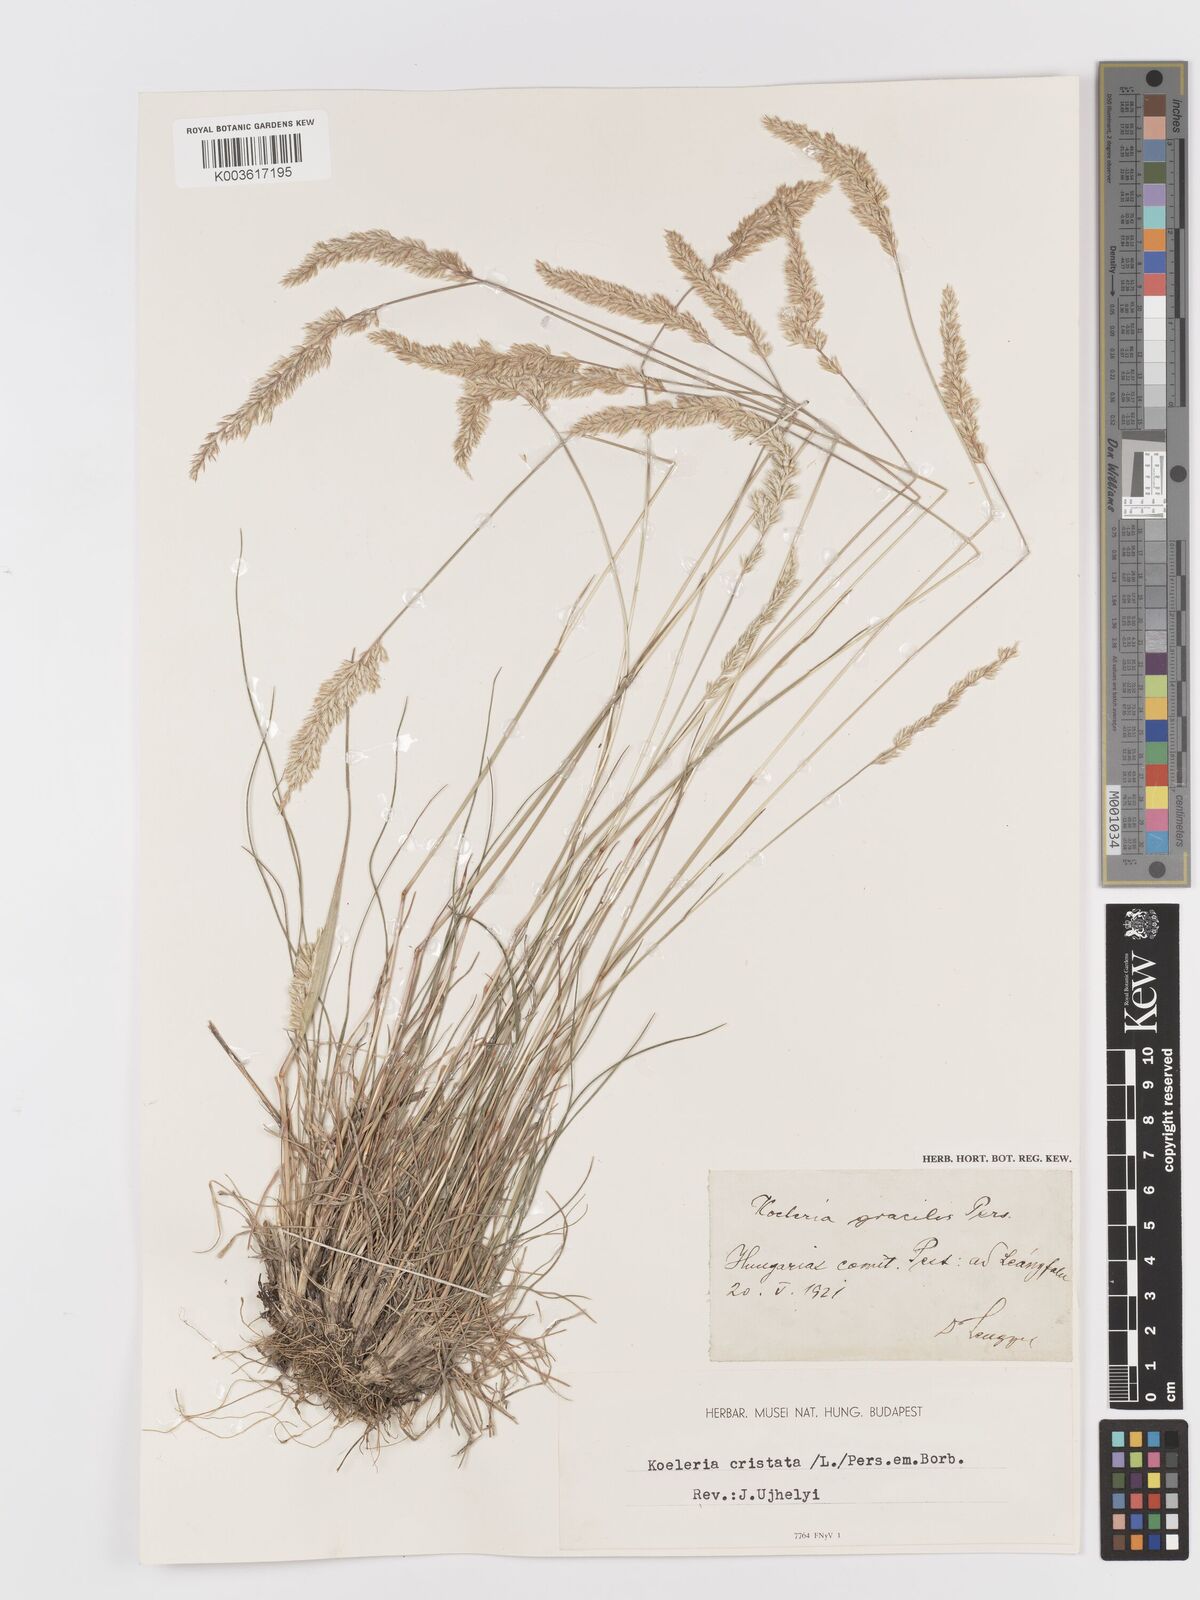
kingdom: Plantae
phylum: Tracheophyta
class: Liliopsida
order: Poales
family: Poaceae
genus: Koeleria
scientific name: Koeleria macrantha
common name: Crested hair-grass
